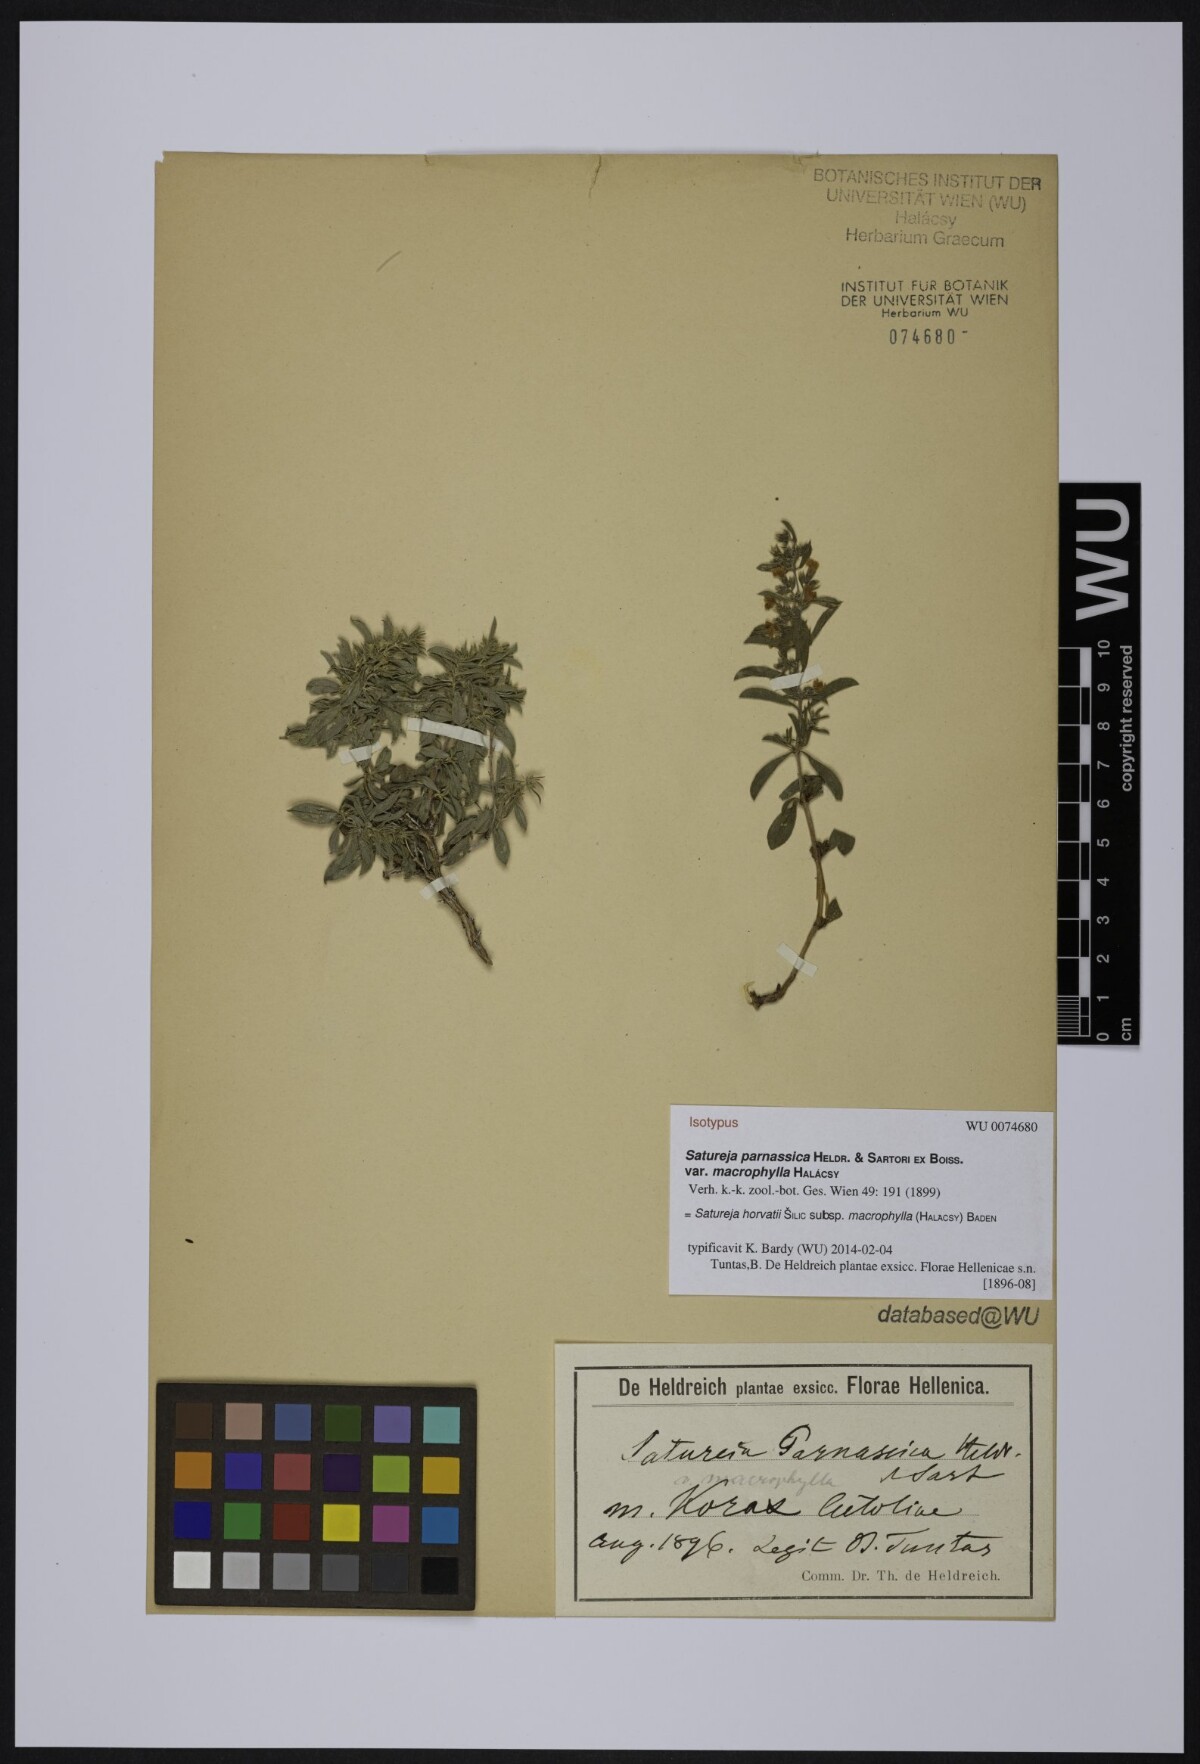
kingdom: Plantae
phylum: Tracheophyta
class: Magnoliopsida
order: Lamiales
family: Lamiaceae
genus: Satureja
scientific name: Satureja horvatii
